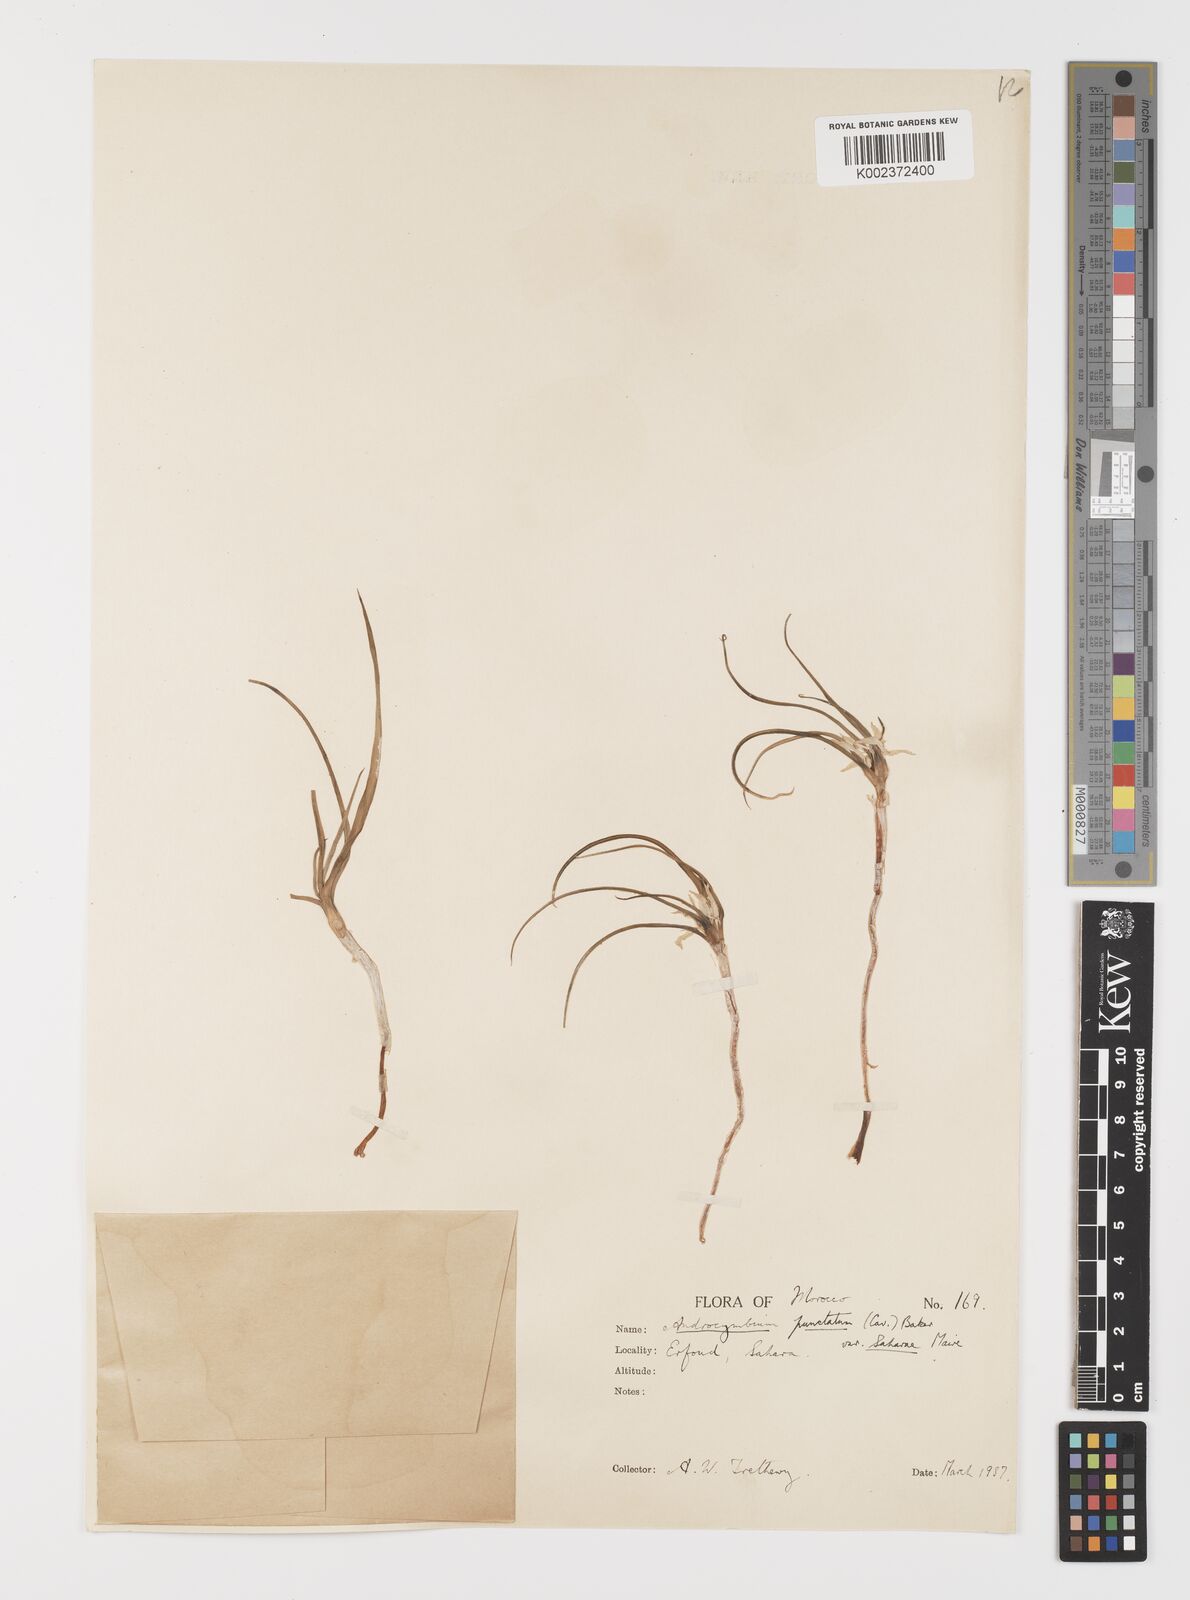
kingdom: Plantae
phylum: Tracheophyta
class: Liliopsida
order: Liliales
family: Colchicaceae
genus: Colchicum
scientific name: Colchicum gramineum
